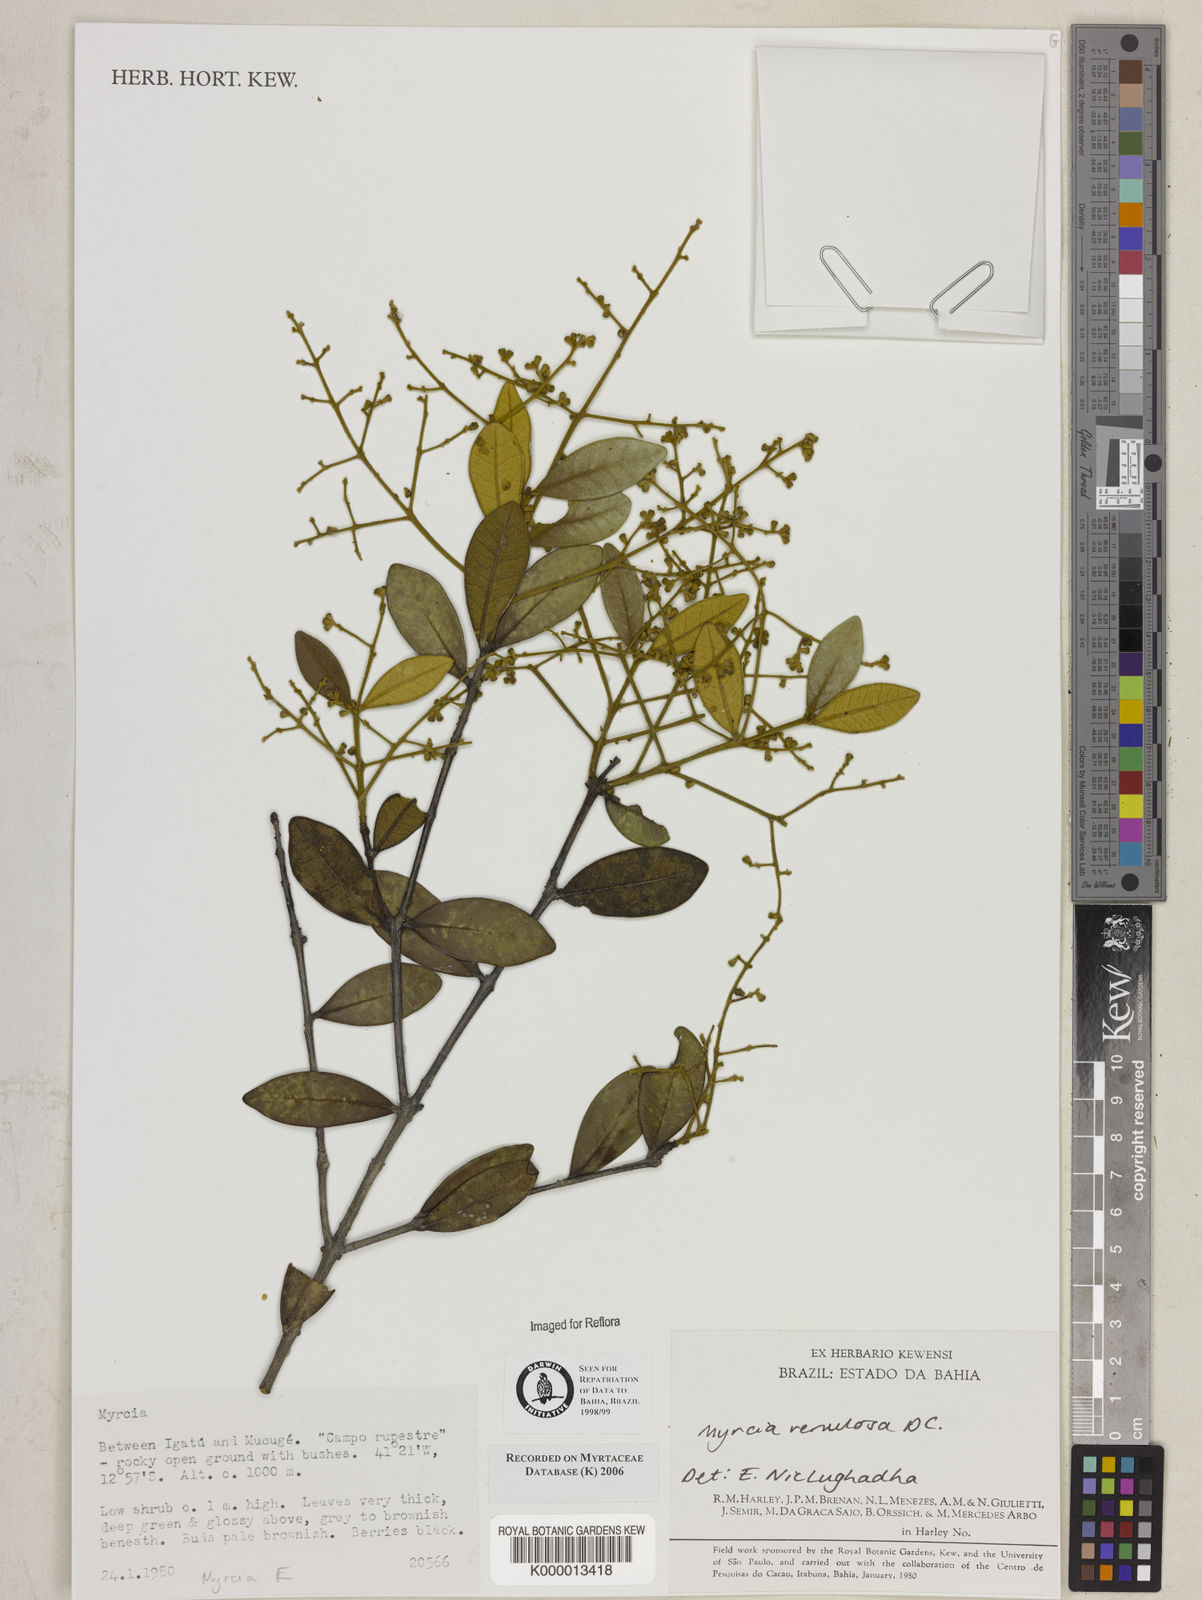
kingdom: Plantae
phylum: Tracheophyta
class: Magnoliopsida
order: Myrtales
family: Myrtaceae
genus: Myrcia
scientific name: Myrcia
